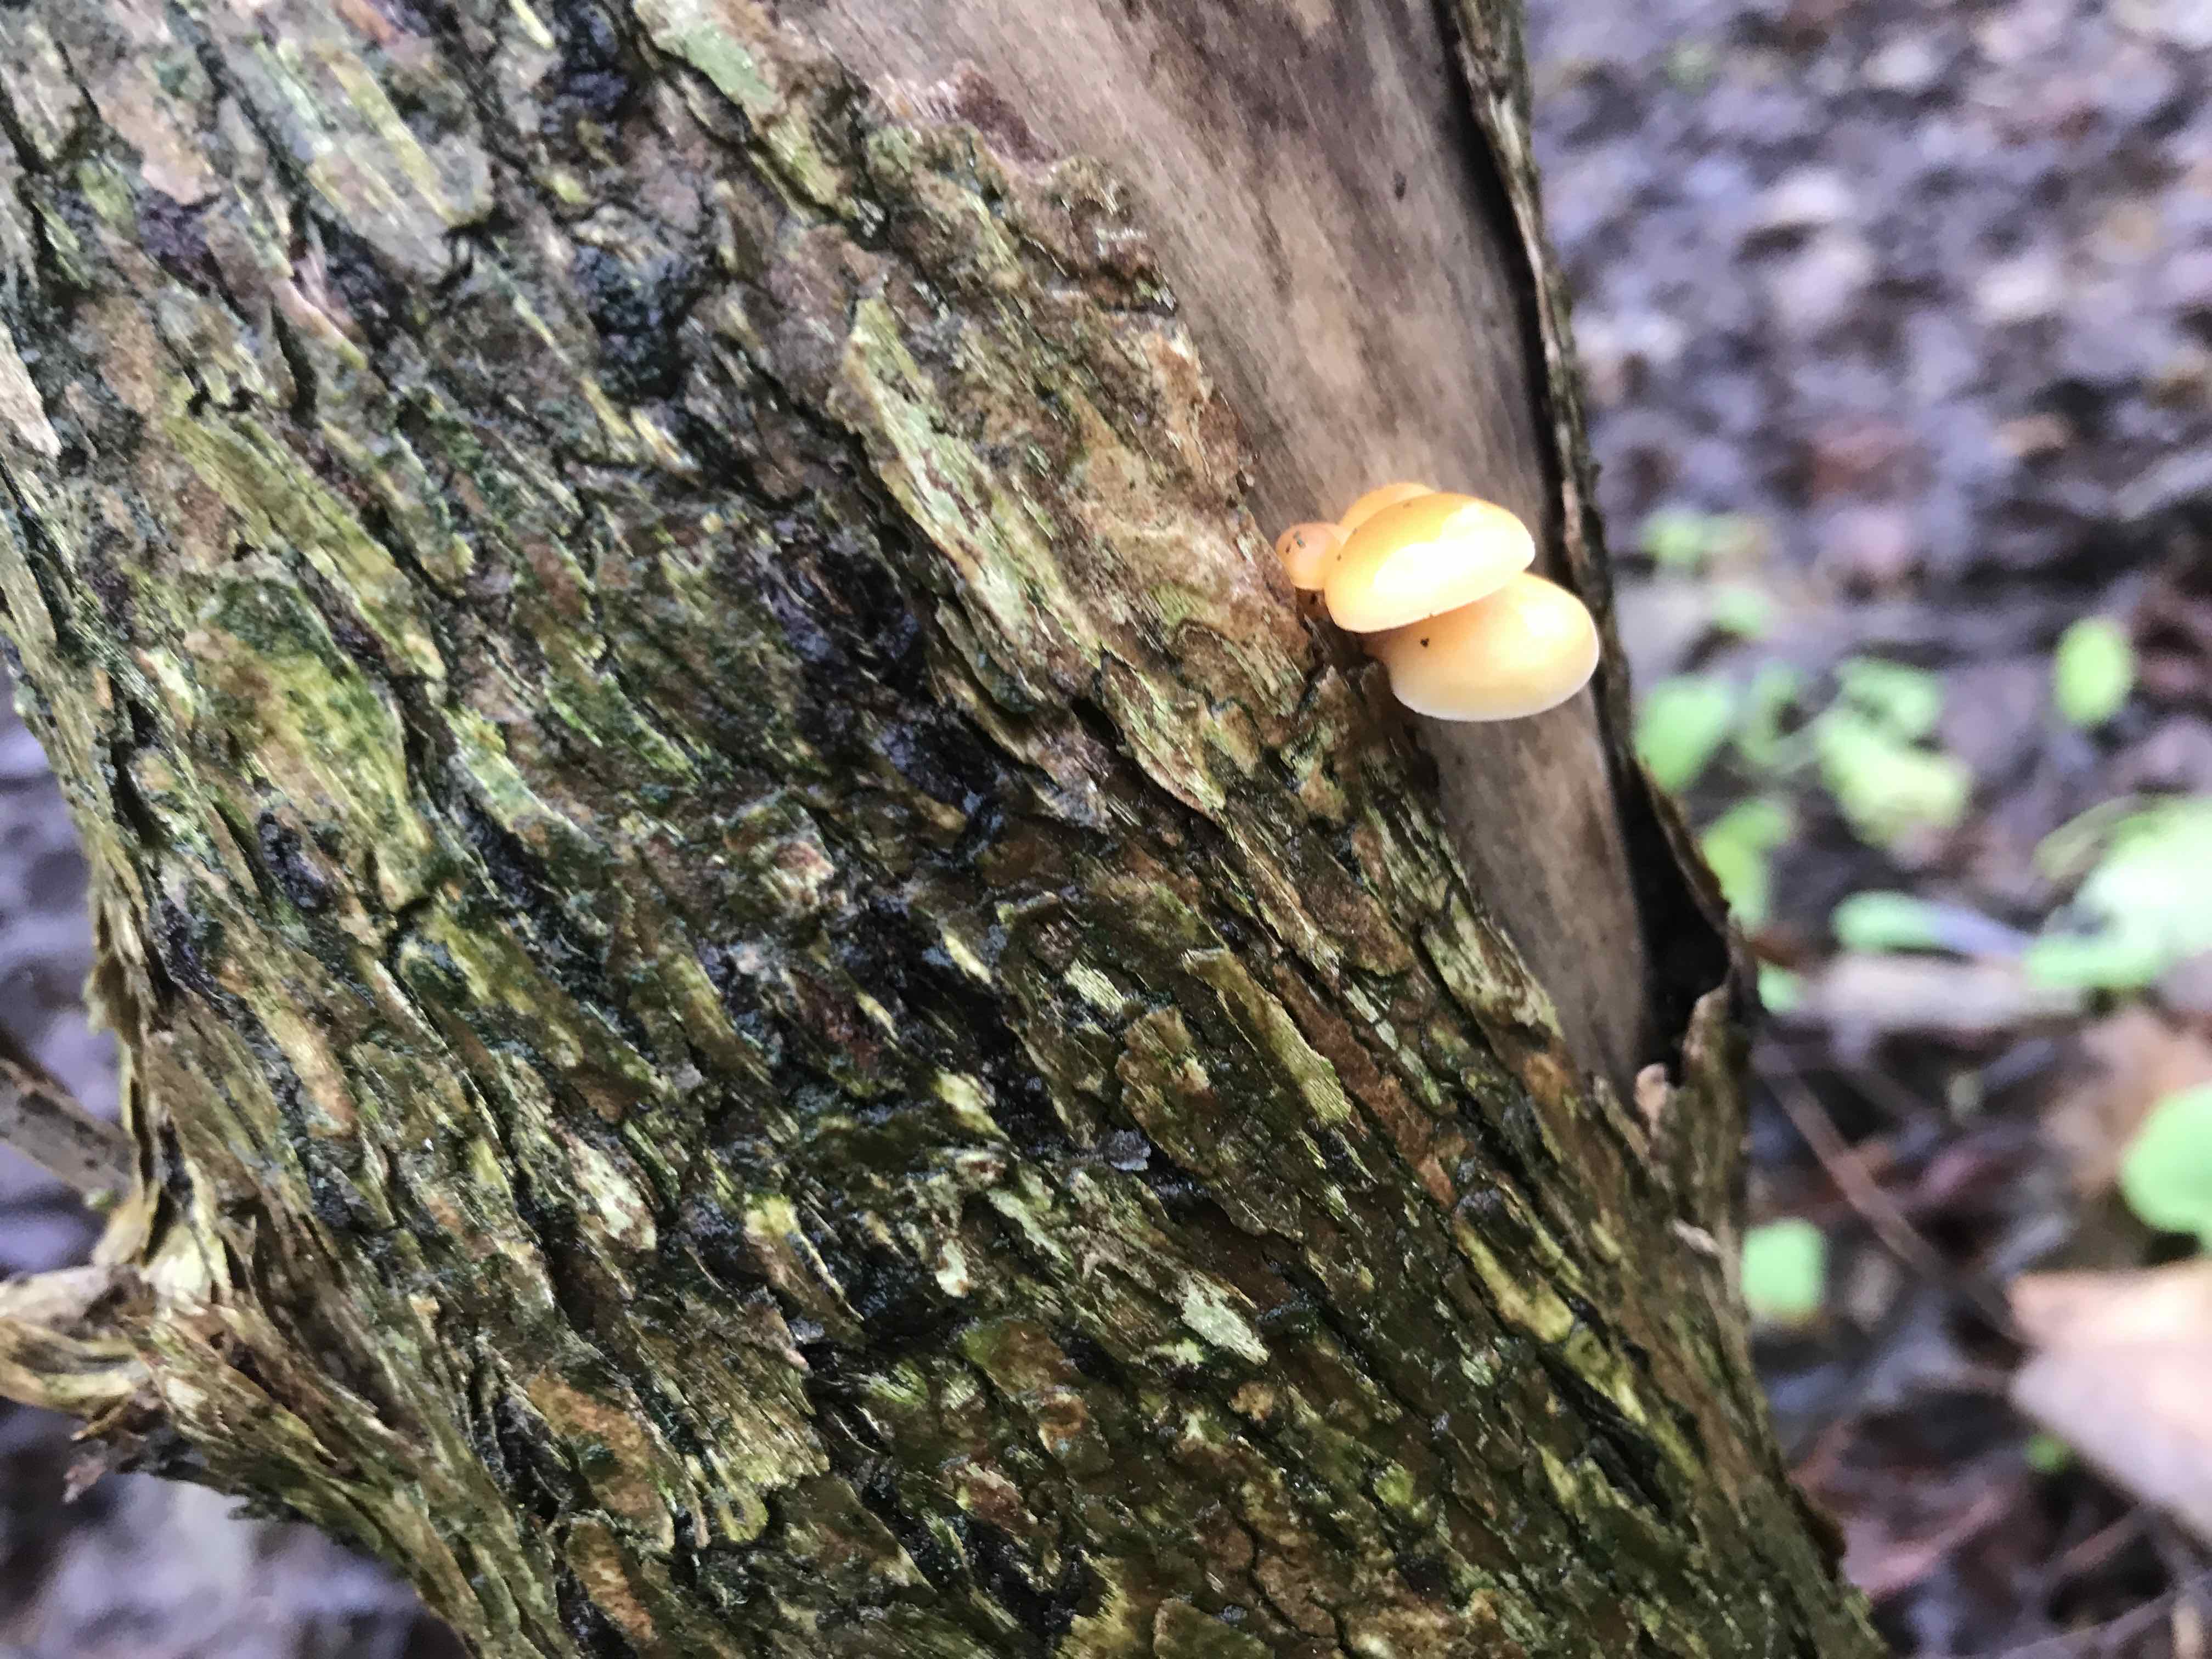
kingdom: Fungi
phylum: Basidiomycota
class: Agaricomycetes
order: Agaricales
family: Physalacriaceae
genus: Flammulina
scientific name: Flammulina velutipes
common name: gul fløjlsfod
